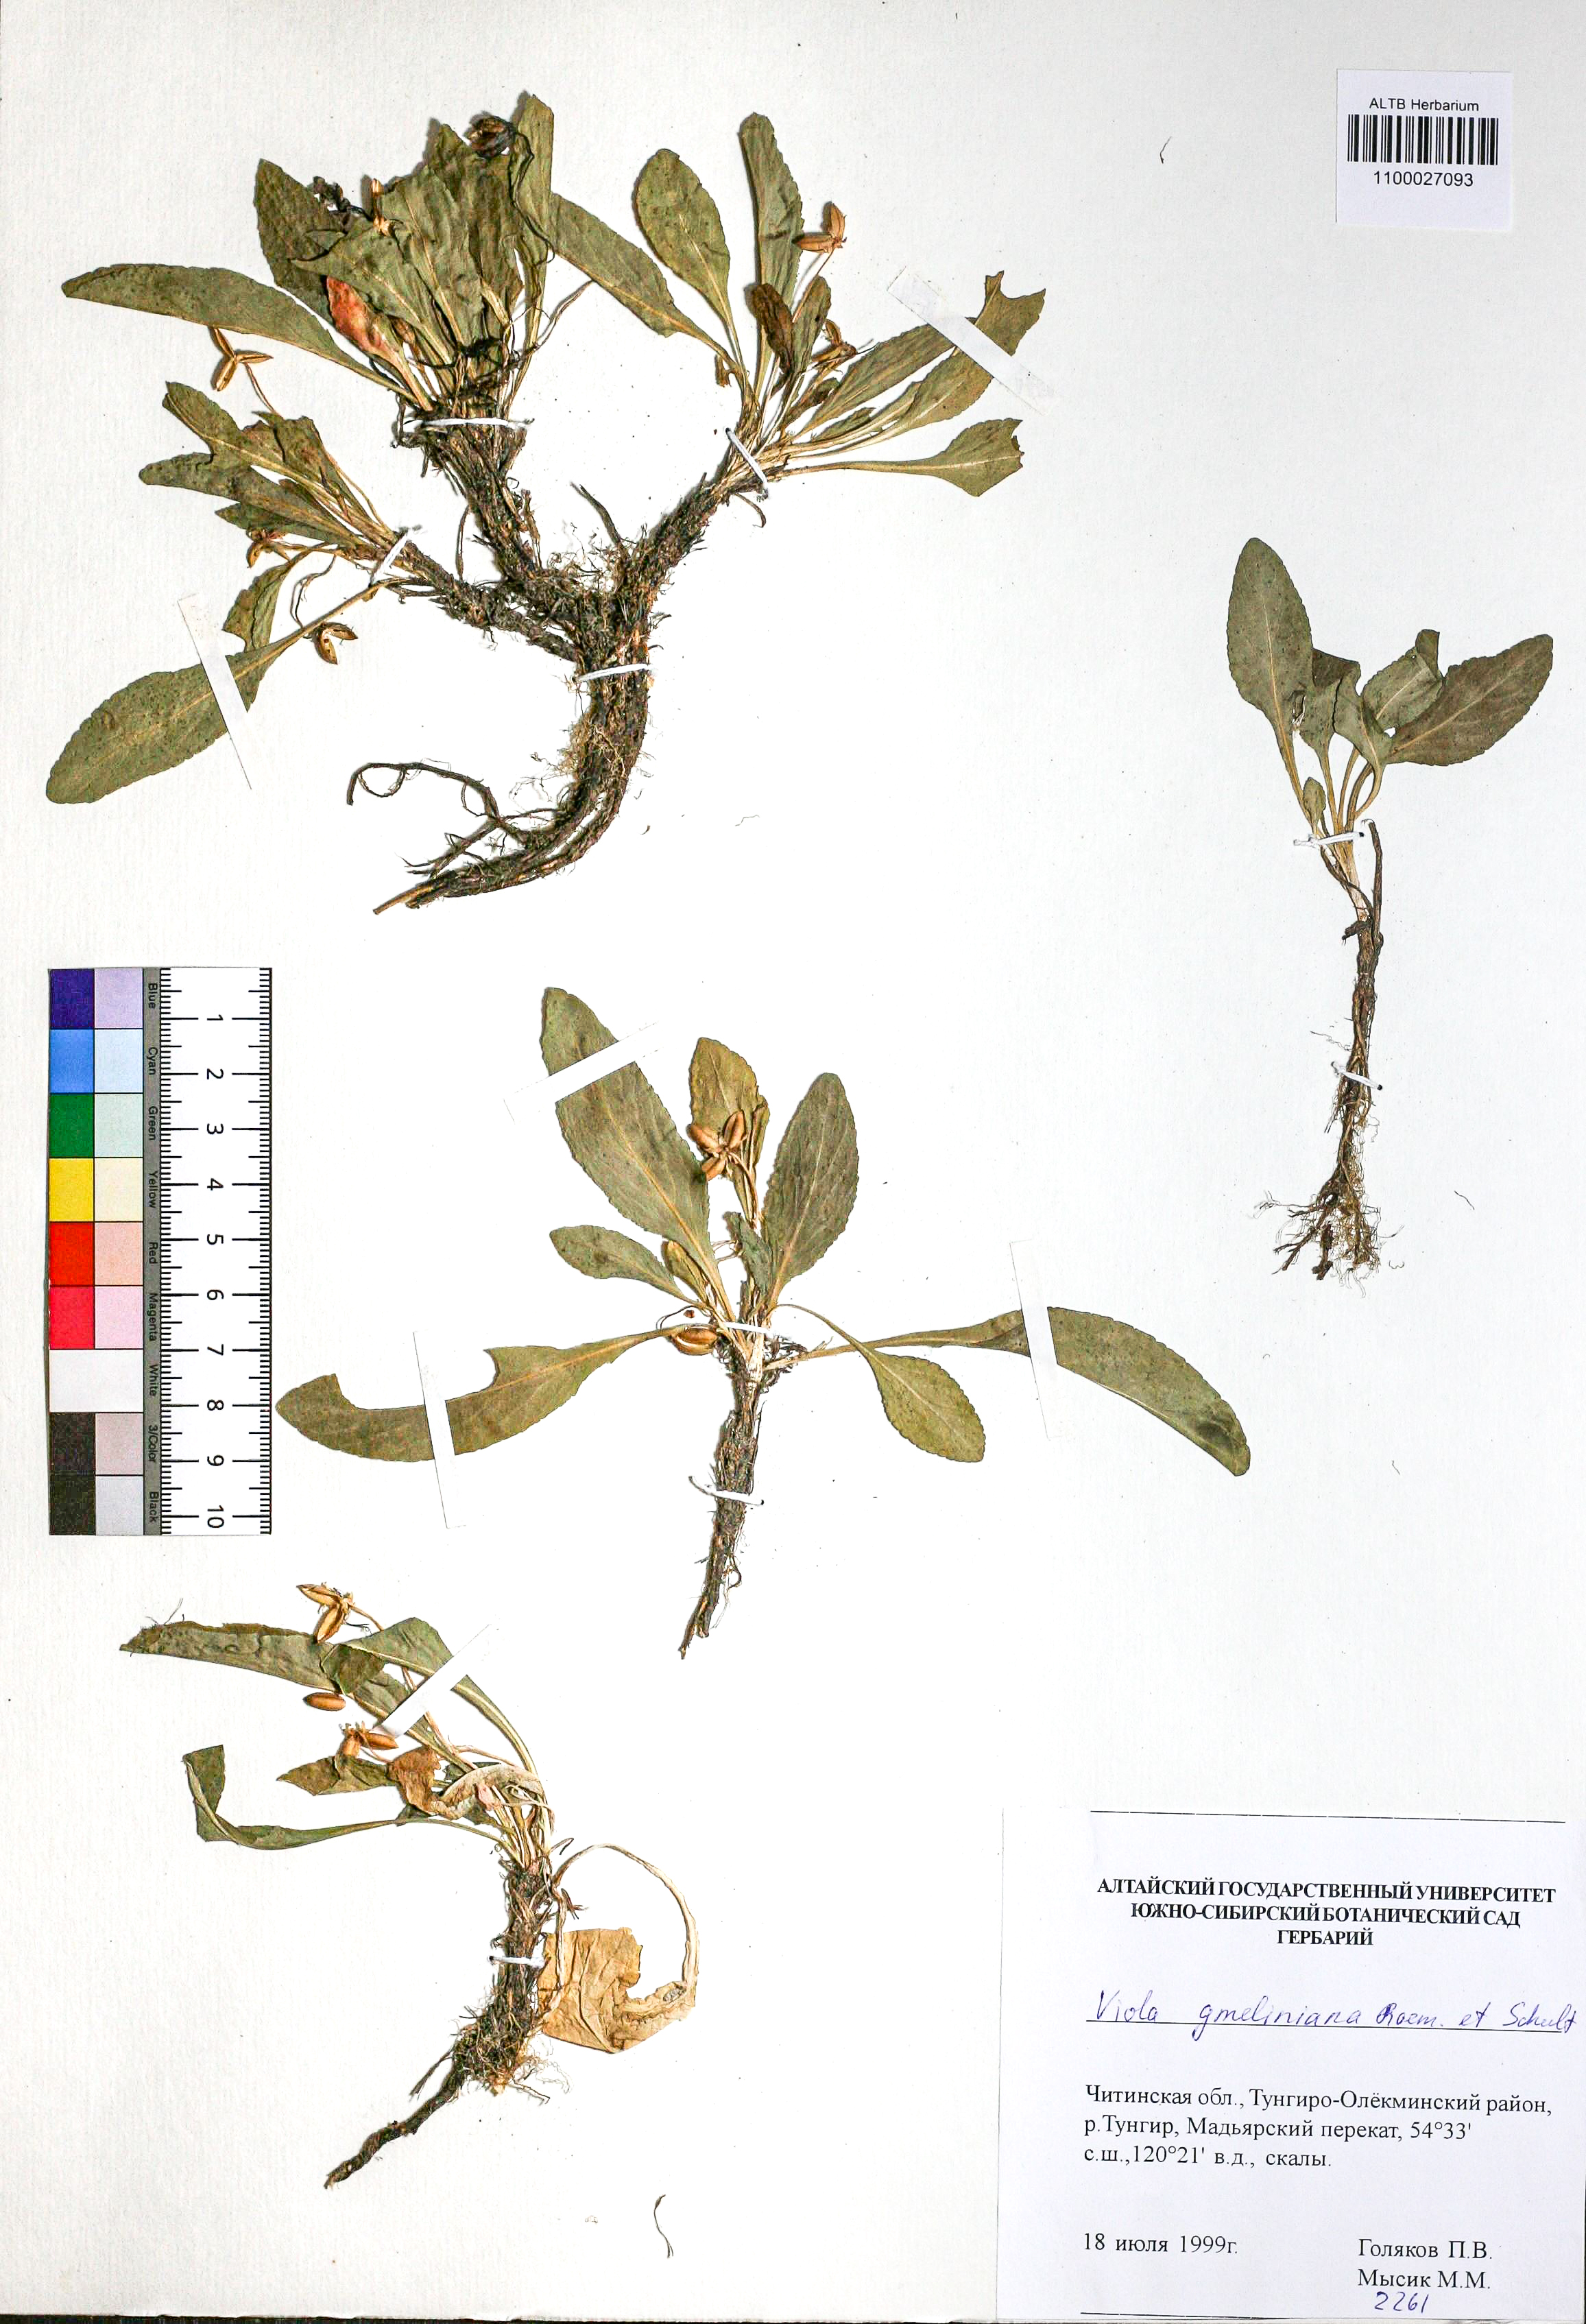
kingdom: Plantae
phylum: Tracheophyta
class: Magnoliopsida
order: Malpighiales
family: Violaceae
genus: Viola
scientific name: Viola gmeliniana
